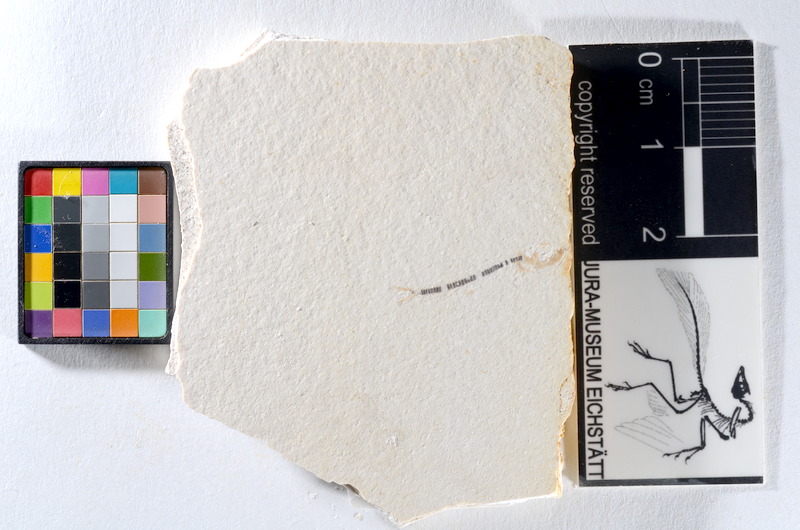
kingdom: Animalia
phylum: Chordata
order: Salmoniformes
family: Orthogonikleithridae
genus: Orthogonikleithrus
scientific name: Orthogonikleithrus hoelli
